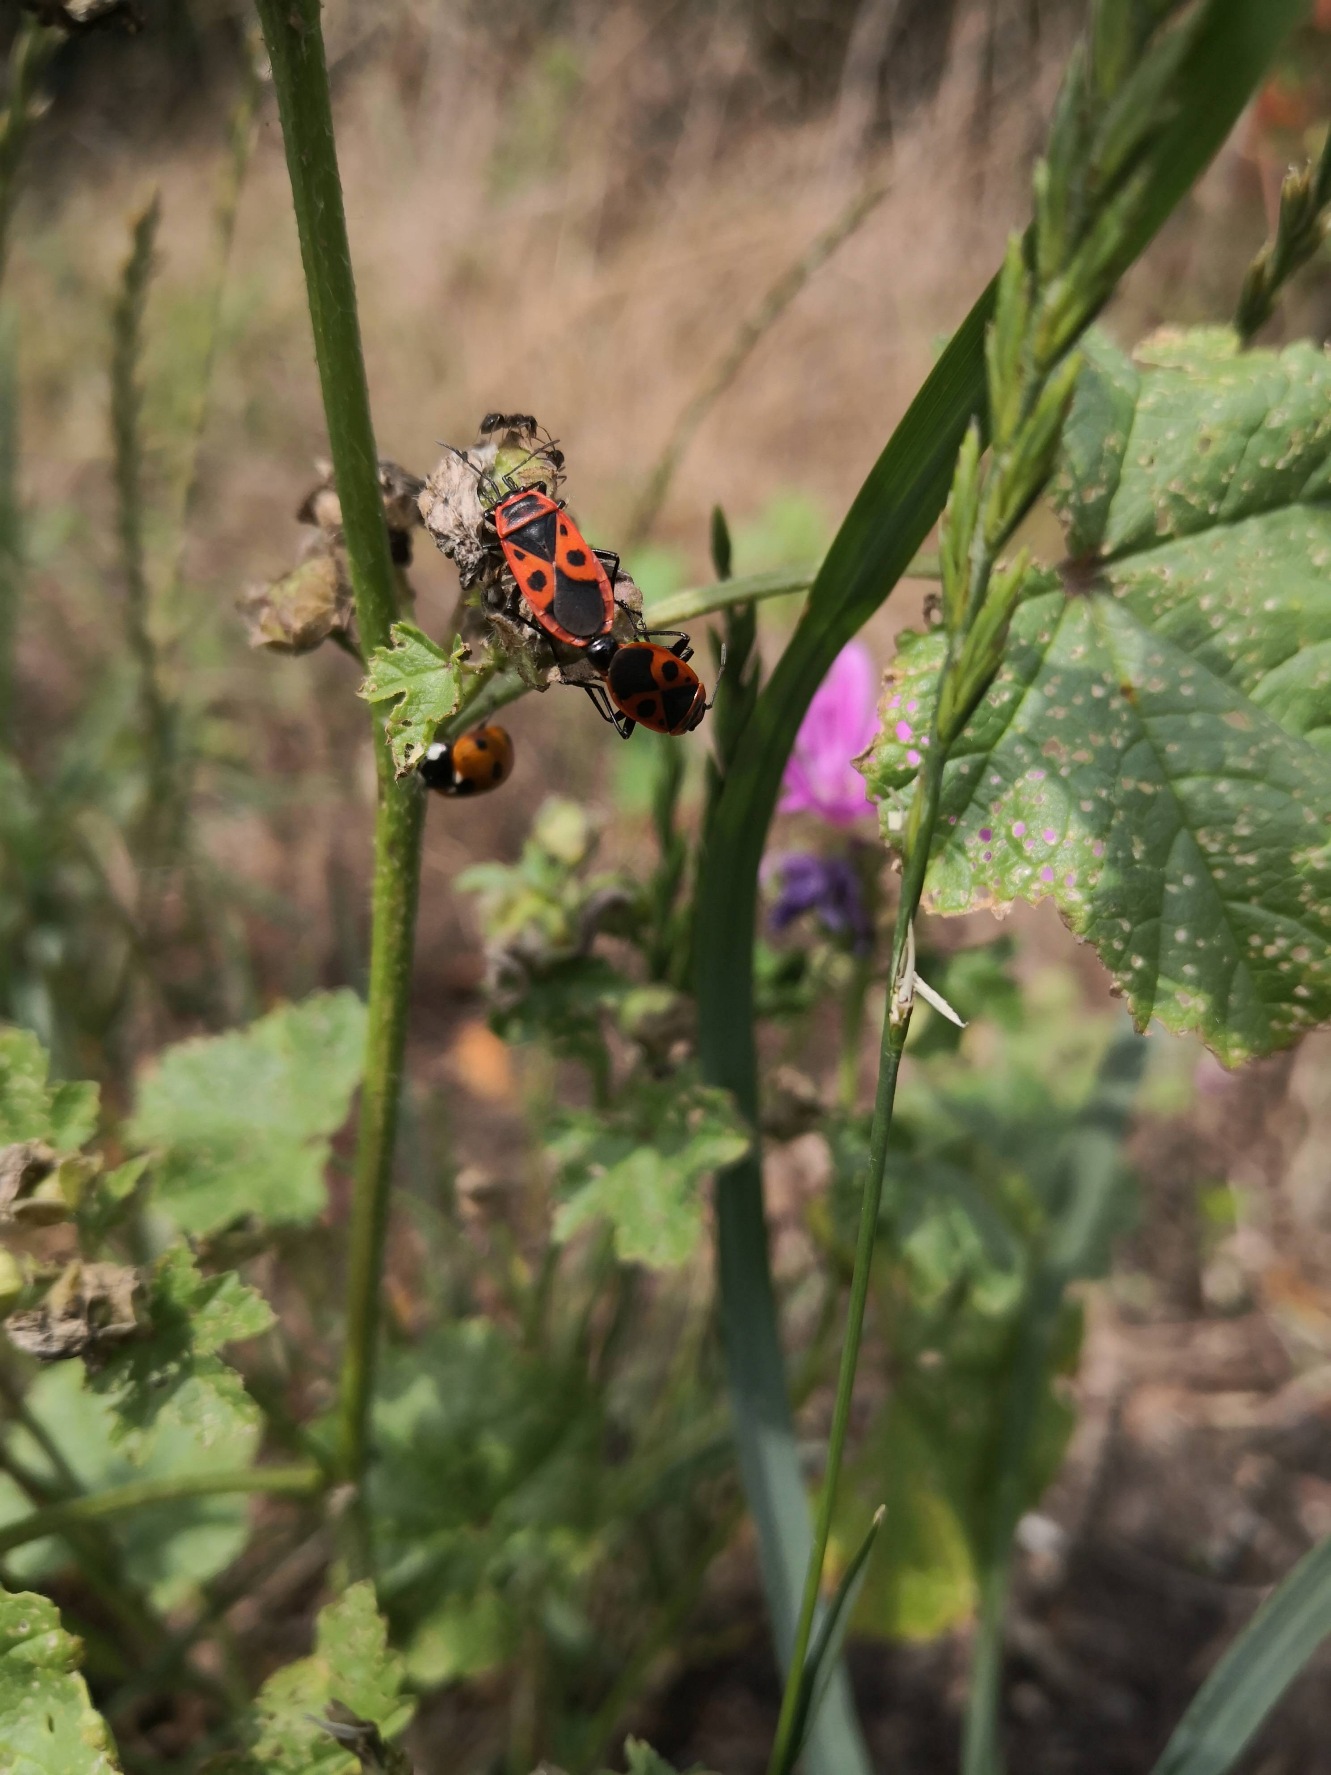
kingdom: Animalia
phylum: Arthropoda
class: Insecta
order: Hemiptera
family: Pyrrhocoridae
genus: Pyrrhocoris
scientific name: Pyrrhocoris apterus
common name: Ildtæge
